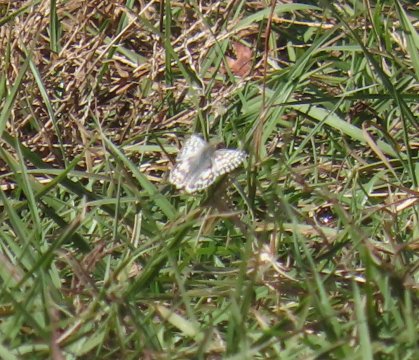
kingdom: Animalia
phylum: Arthropoda
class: Insecta
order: Lepidoptera
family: Hesperiidae
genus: Burnsius
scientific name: Burnsius albescens
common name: White Checkered-Skipper
